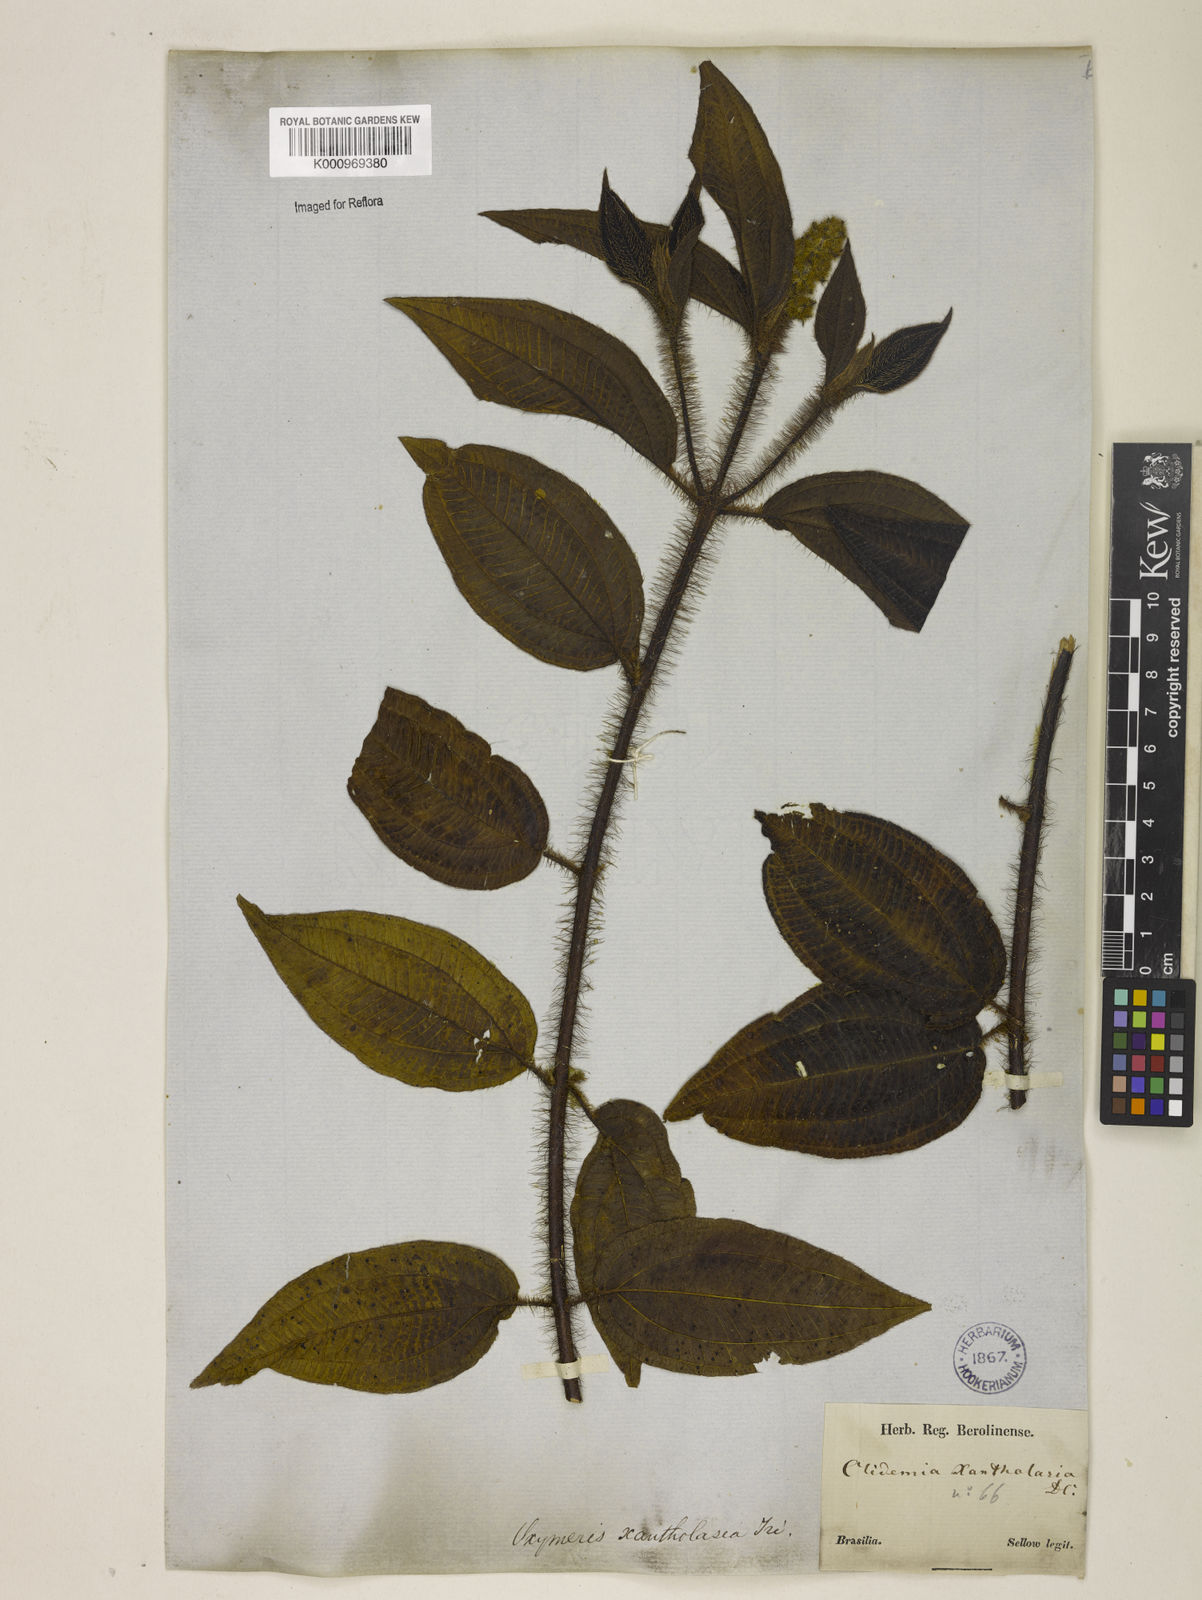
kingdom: Plantae
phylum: Tracheophyta
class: Magnoliopsida
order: Myrtales
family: Melastomataceae
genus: Miconia
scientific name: Miconia xantholasia
